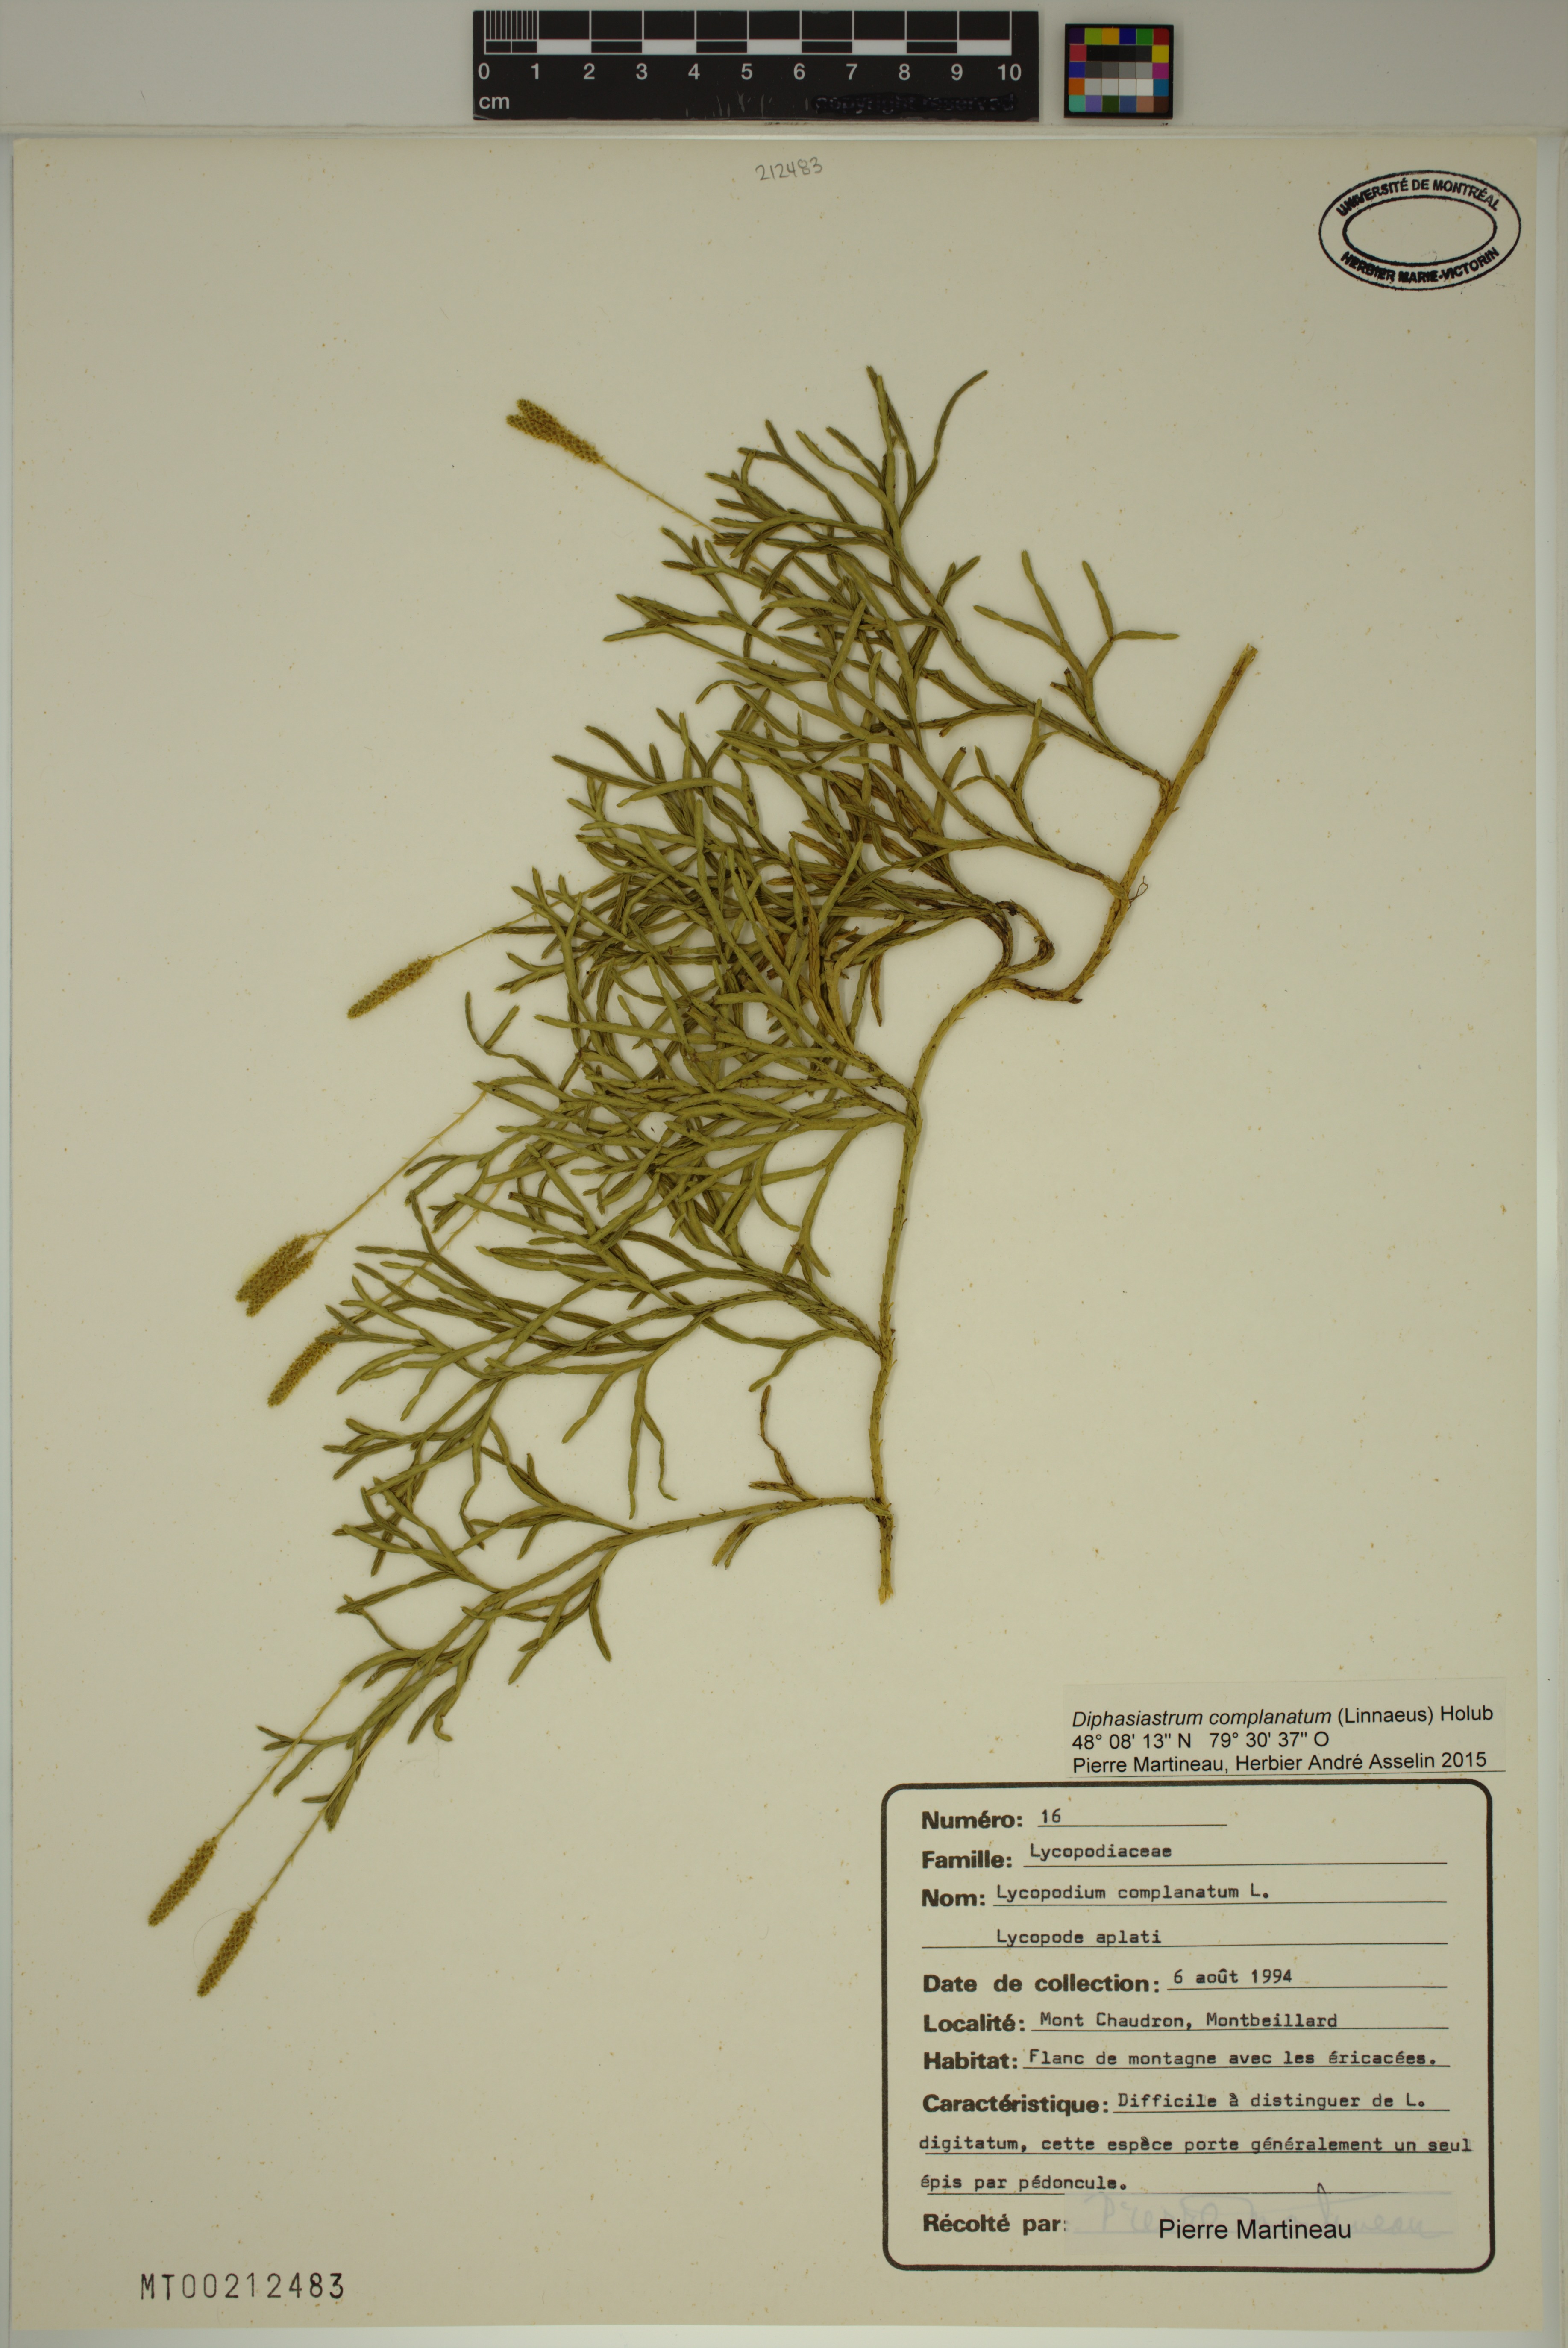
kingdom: Plantae
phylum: Tracheophyta
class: Lycopodiopsida
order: Lycopodiales
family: Lycopodiaceae
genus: Diphasiastrum
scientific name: Diphasiastrum complanatum
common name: Northern running-pine
